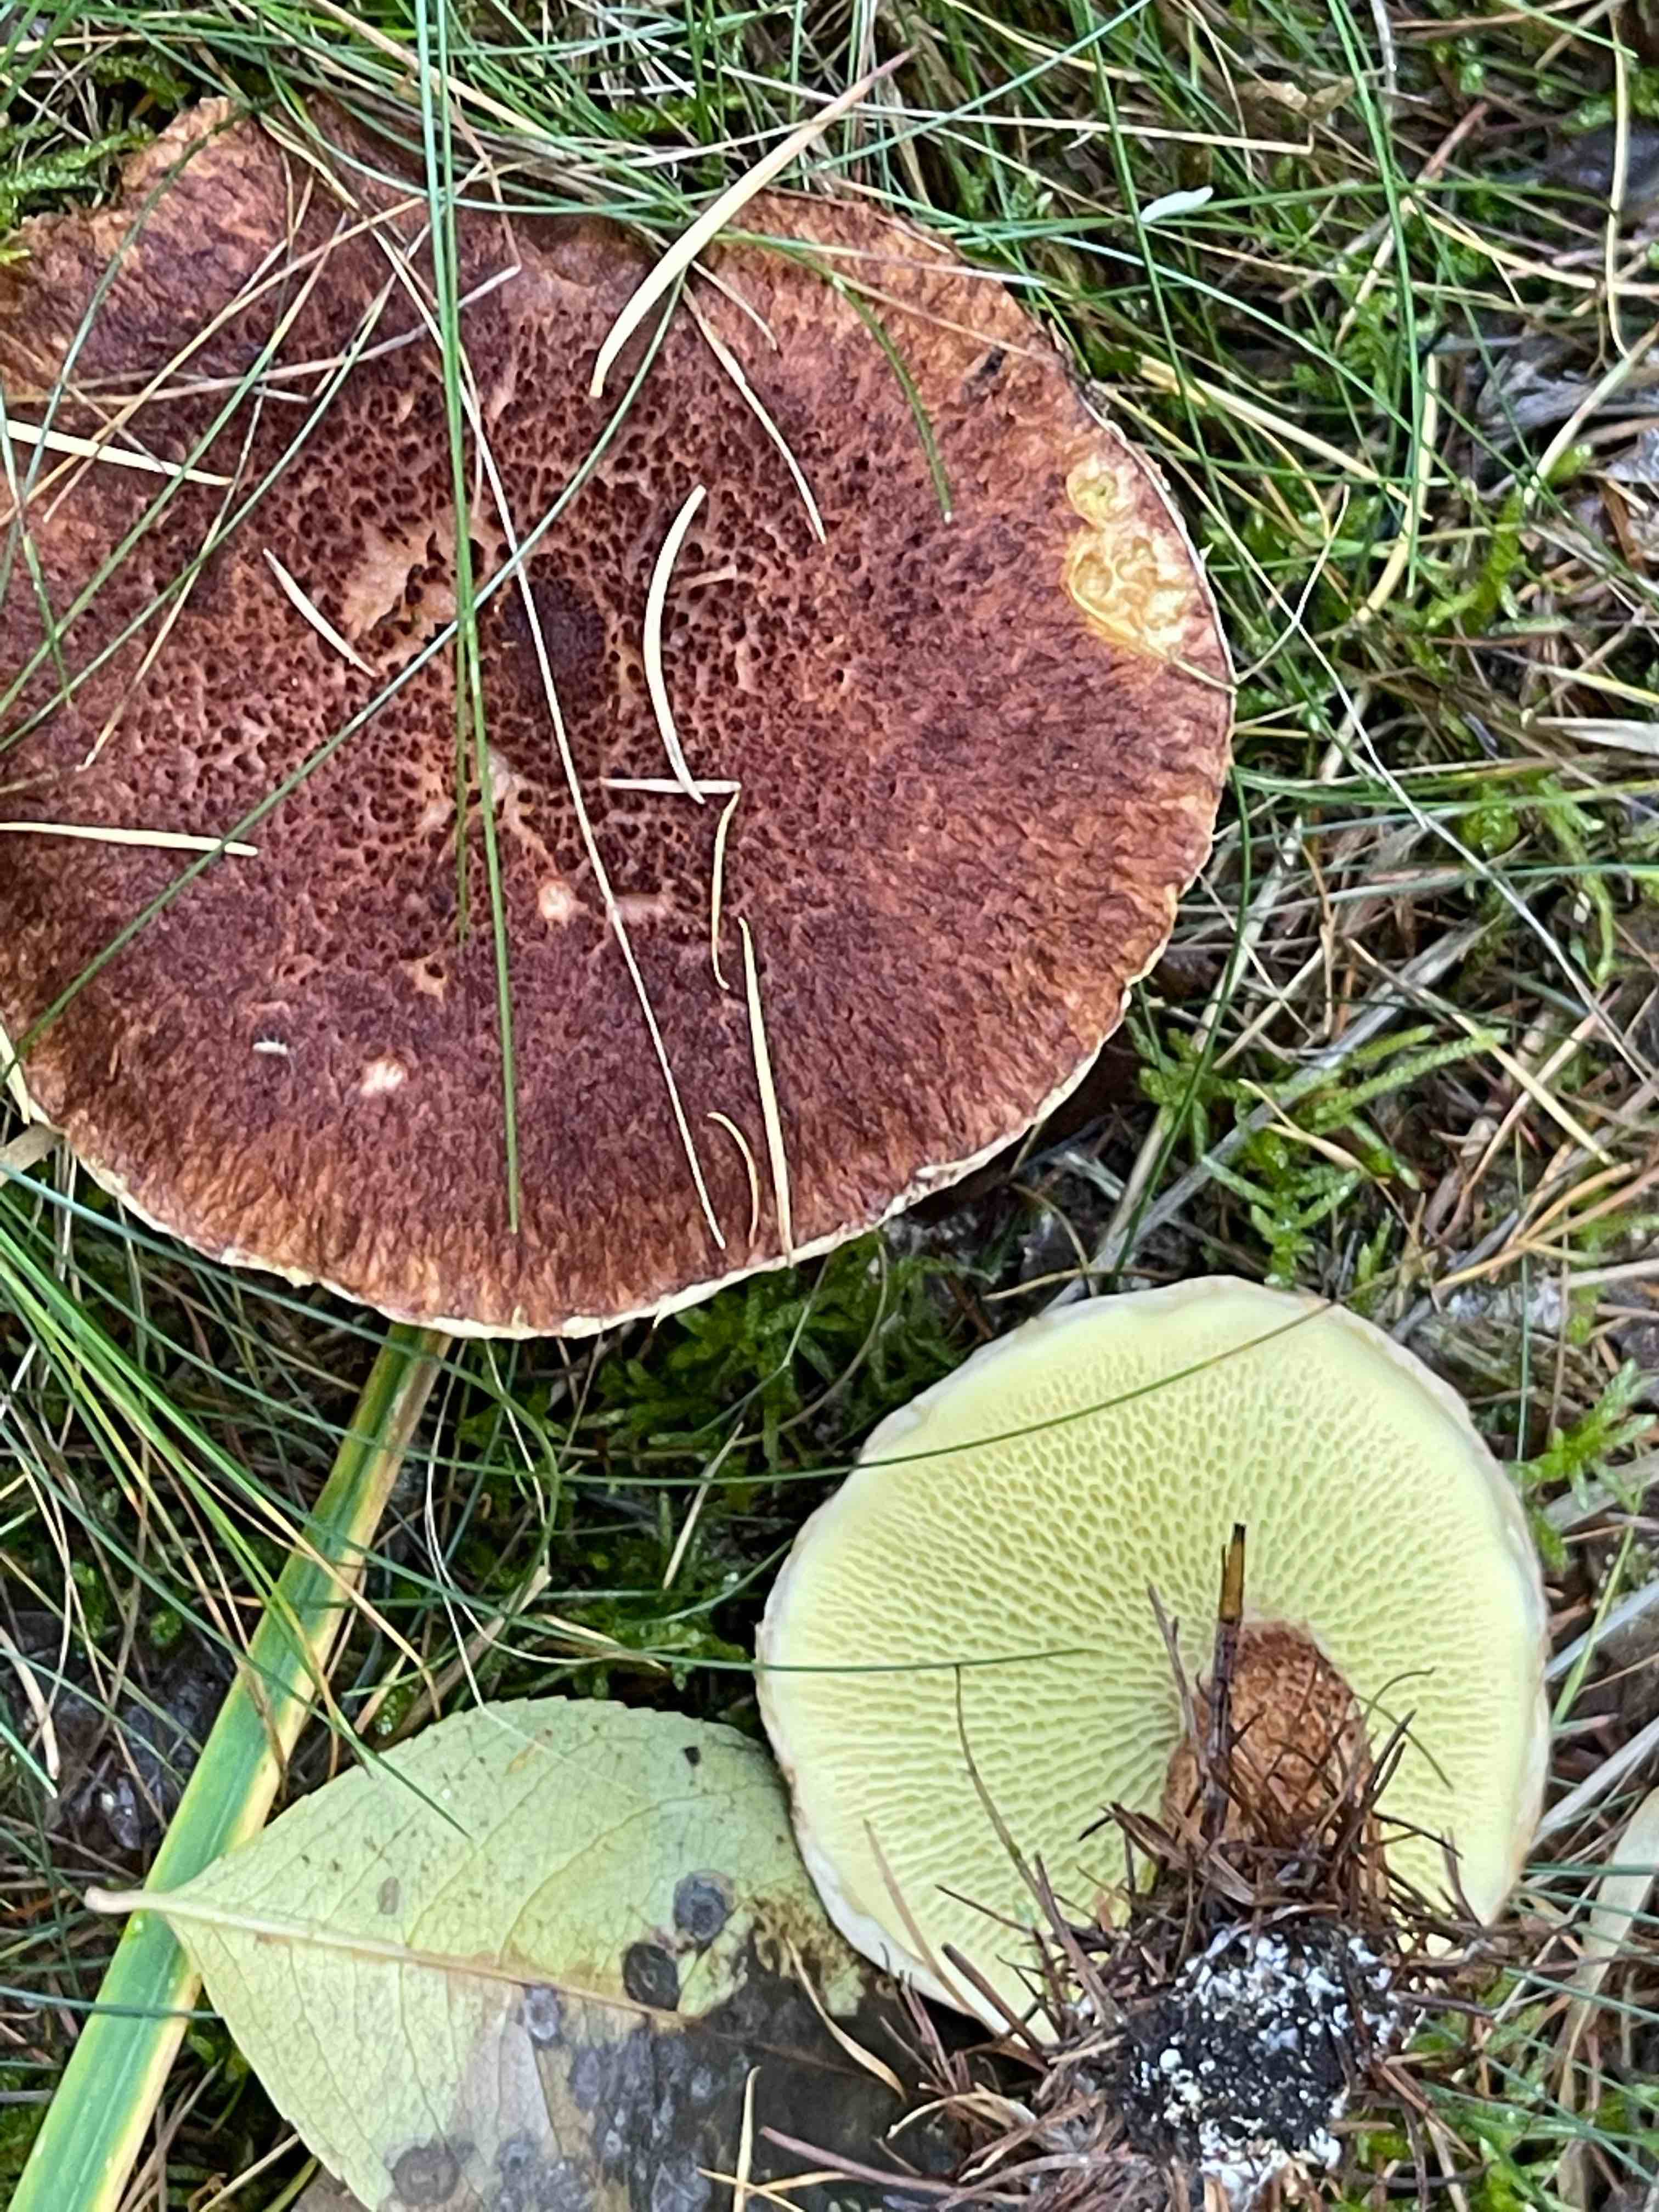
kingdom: Fungi
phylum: Basidiomycota
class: Agaricomycetes
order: Boletales
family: Suillaceae
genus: Suillus
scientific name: Suillus cavipes
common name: hulstokket slimrørhat
